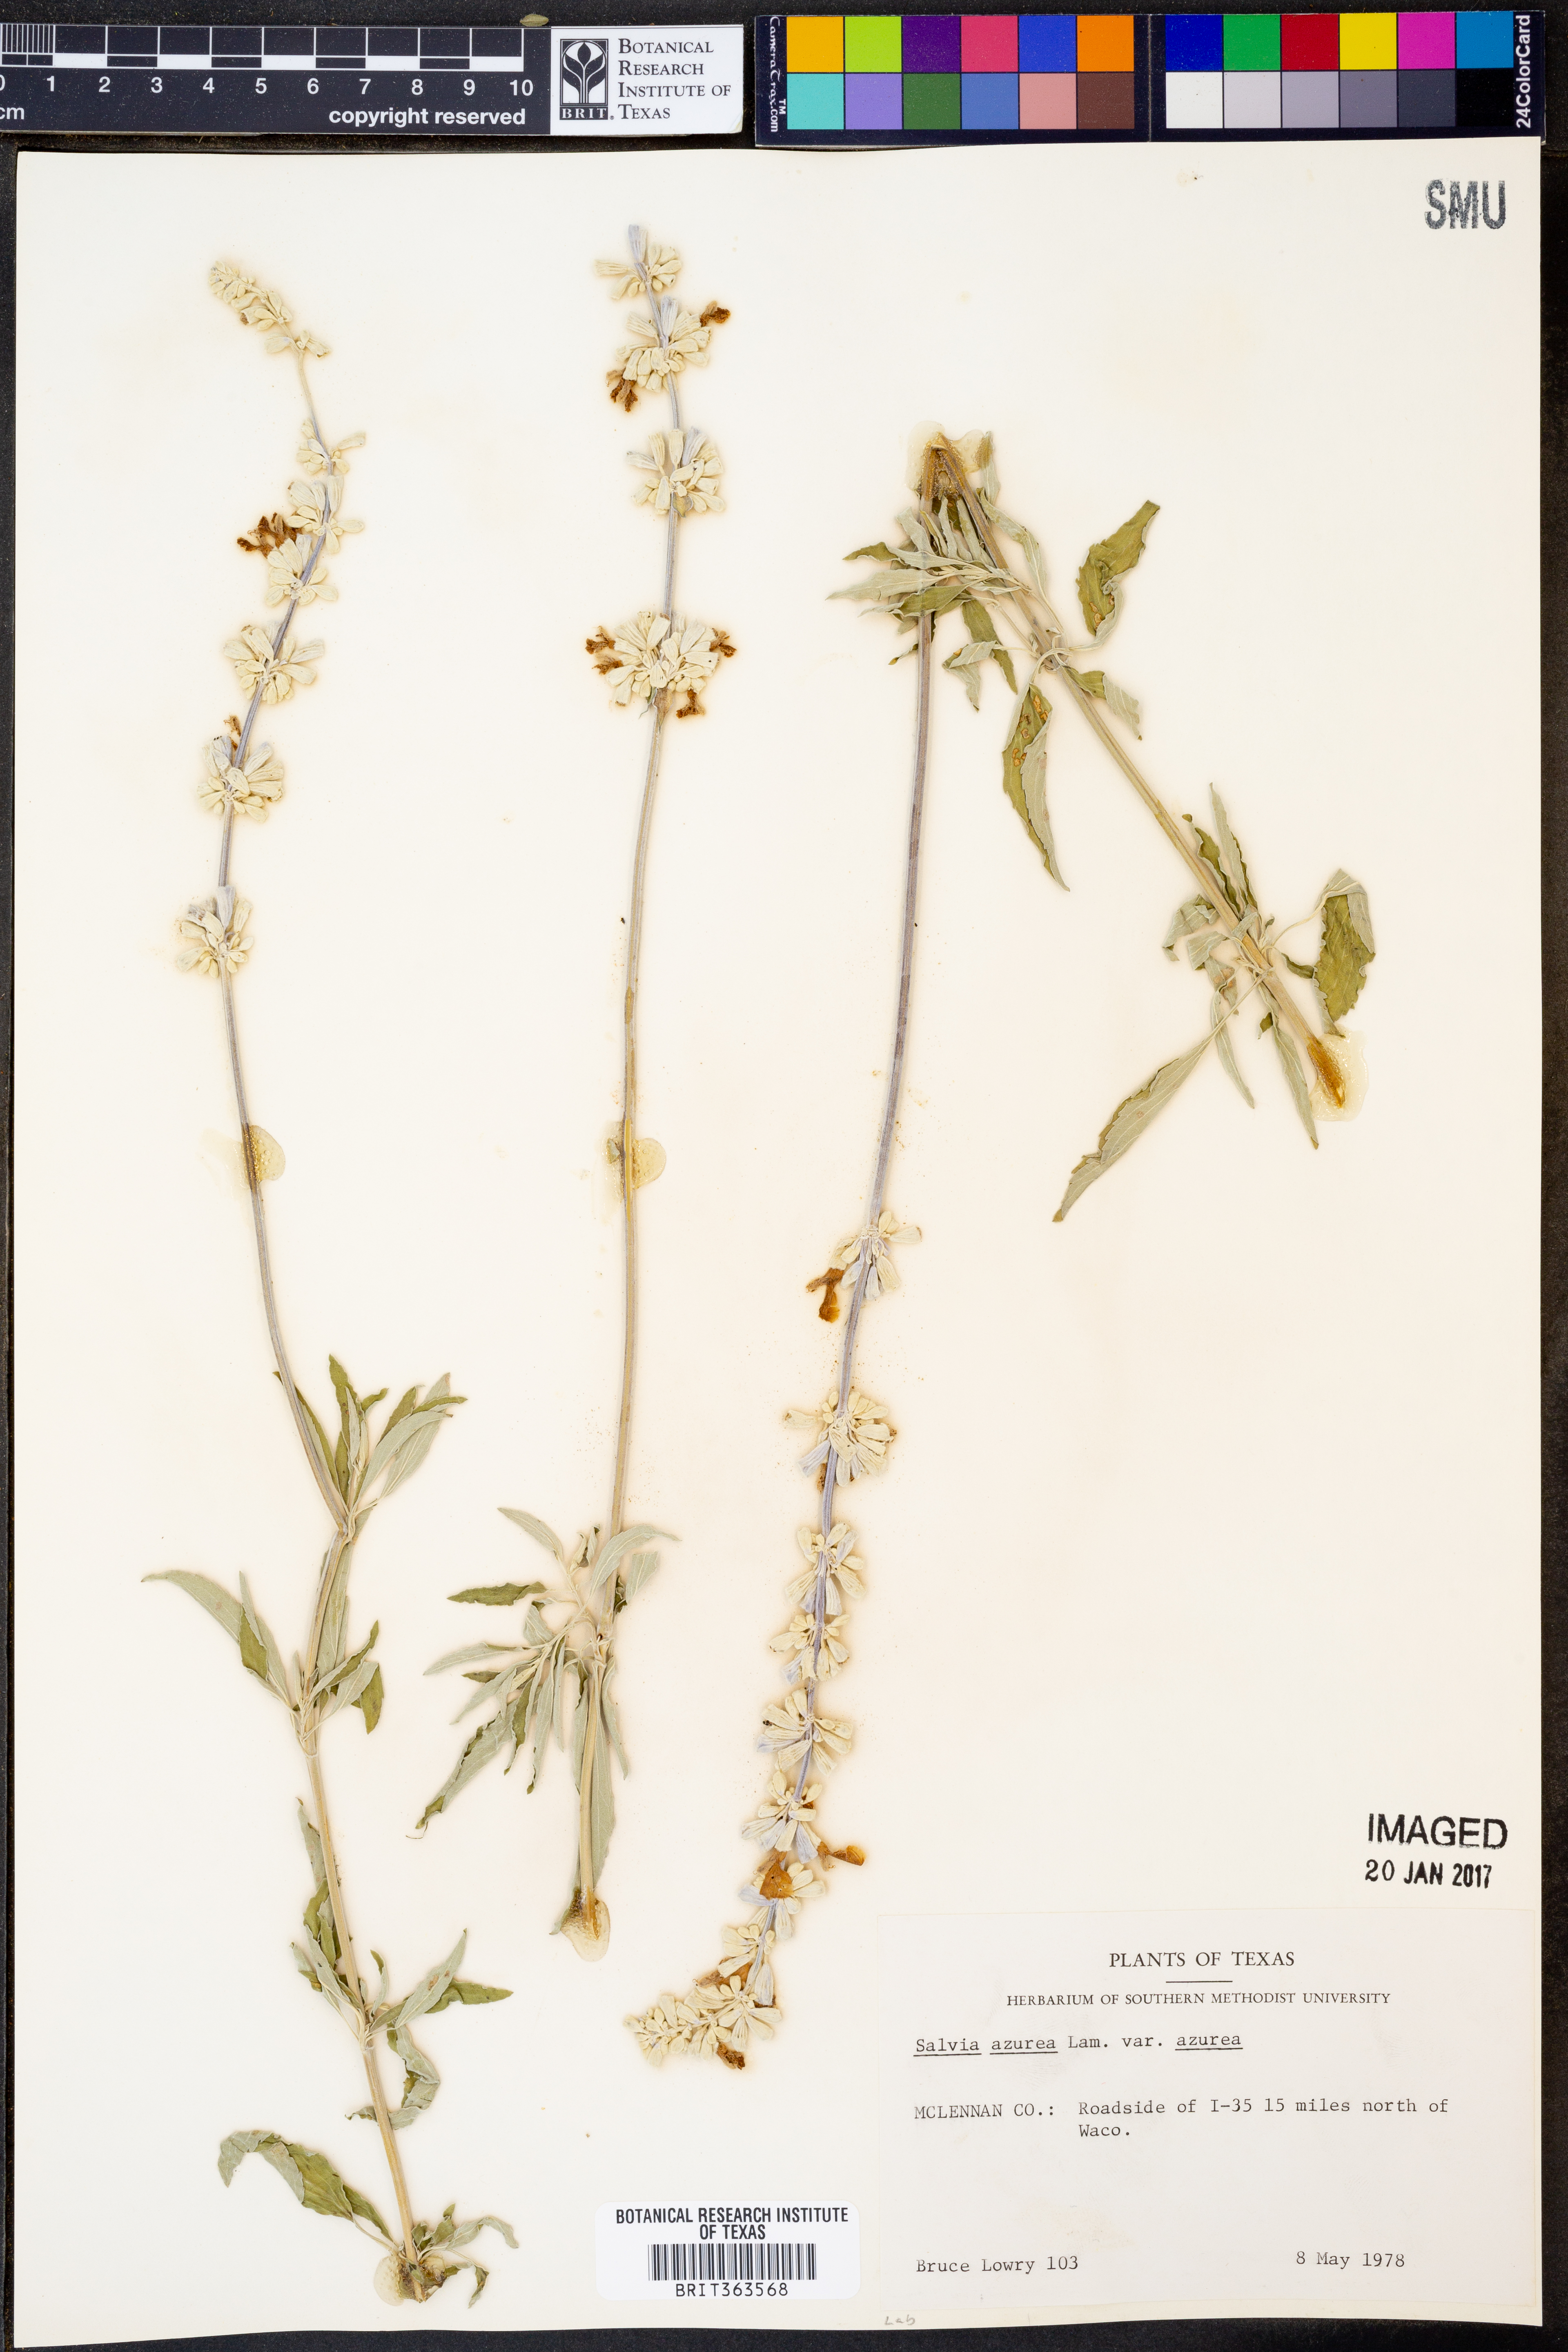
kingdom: Plantae
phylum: Tracheophyta
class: Magnoliopsida
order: Lamiales
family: Lamiaceae
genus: Salvia
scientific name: Salvia azurea
